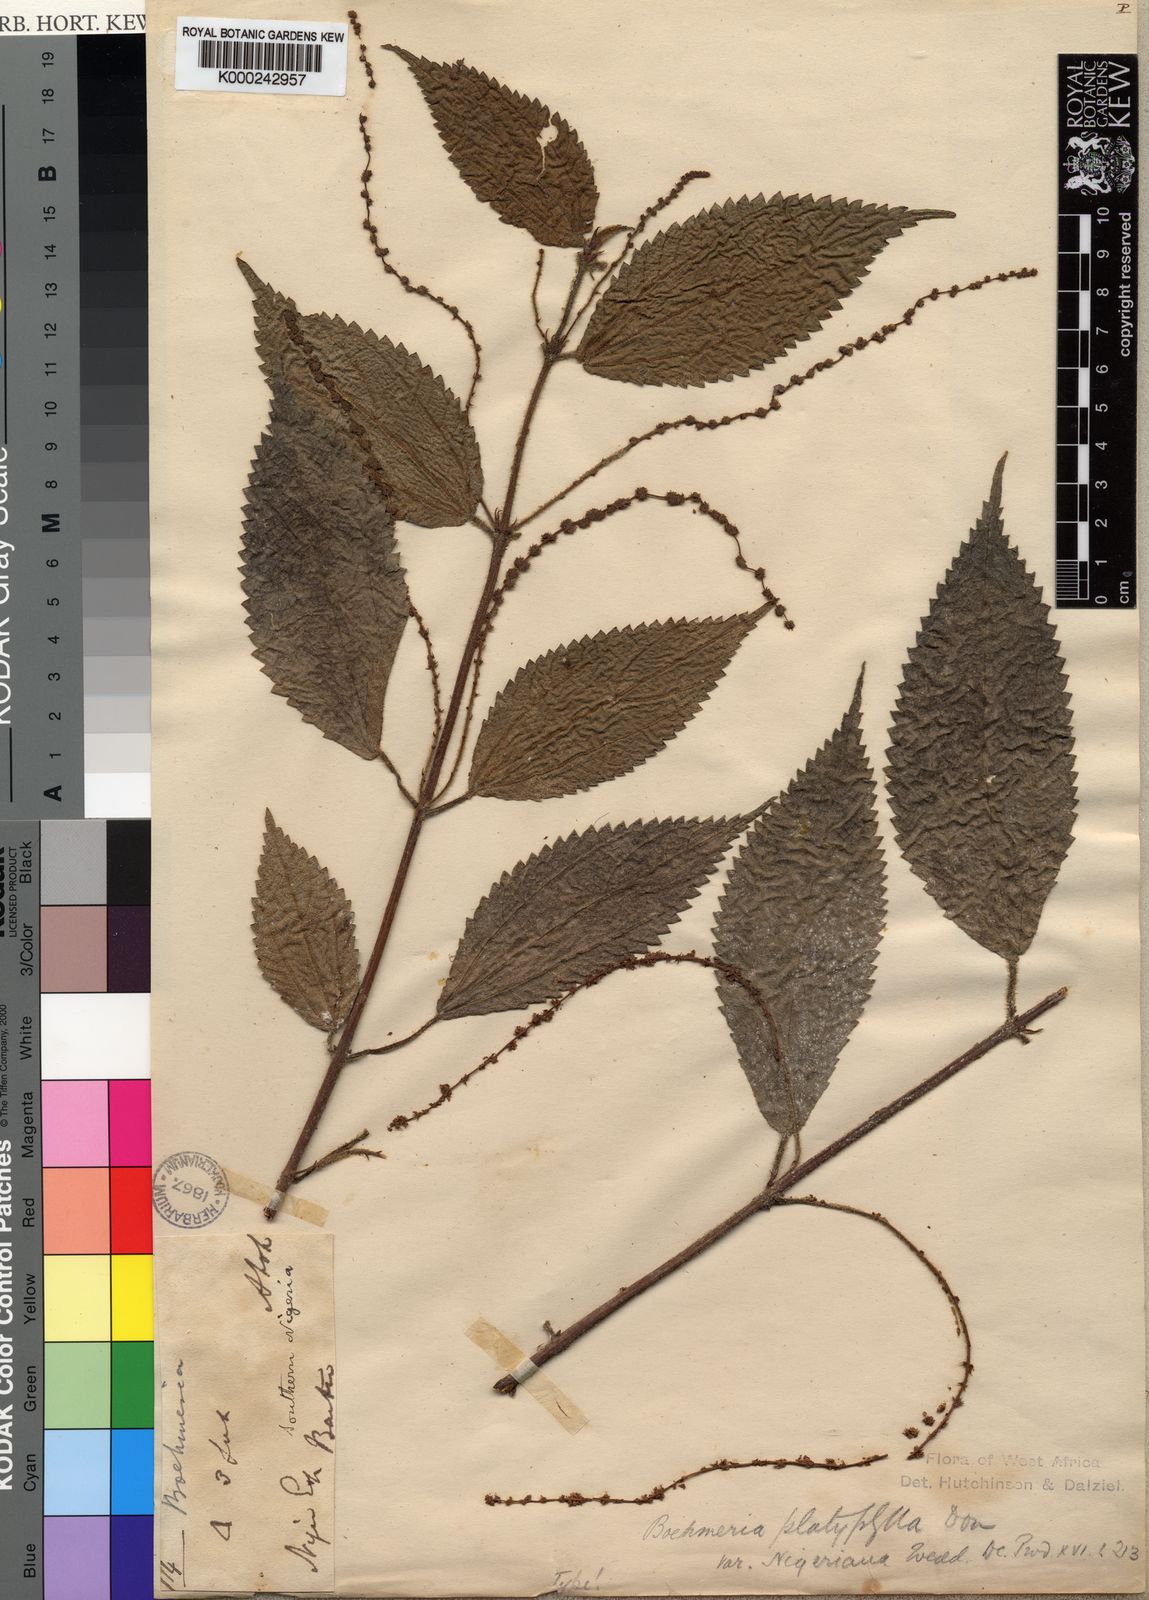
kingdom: Plantae
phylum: Tracheophyta
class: Magnoliopsida
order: Rosales
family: Urticaceae
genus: Boehmeria
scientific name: Boehmeria
